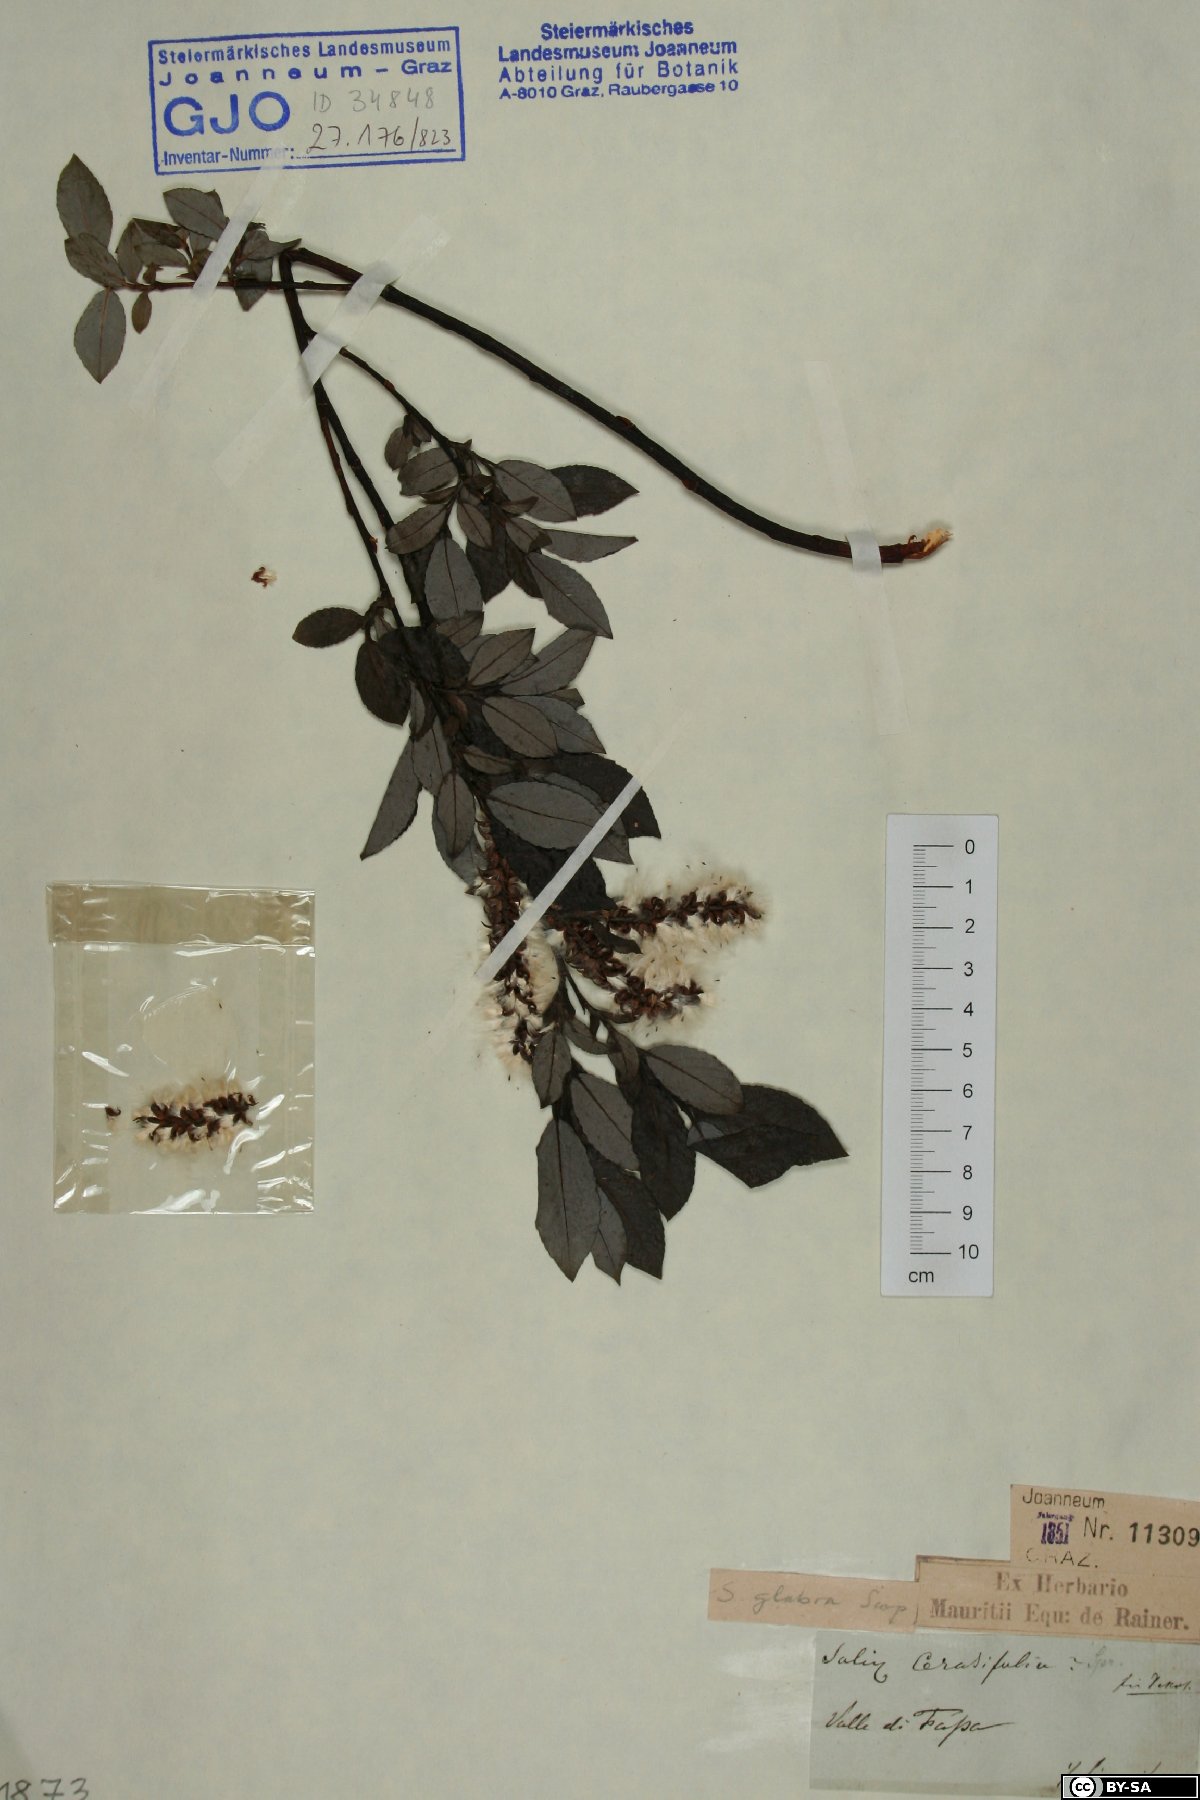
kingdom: Plantae
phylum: Tracheophyta
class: Magnoliopsida
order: Malpighiales
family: Salicaceae
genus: Salix
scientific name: Salix glabra
